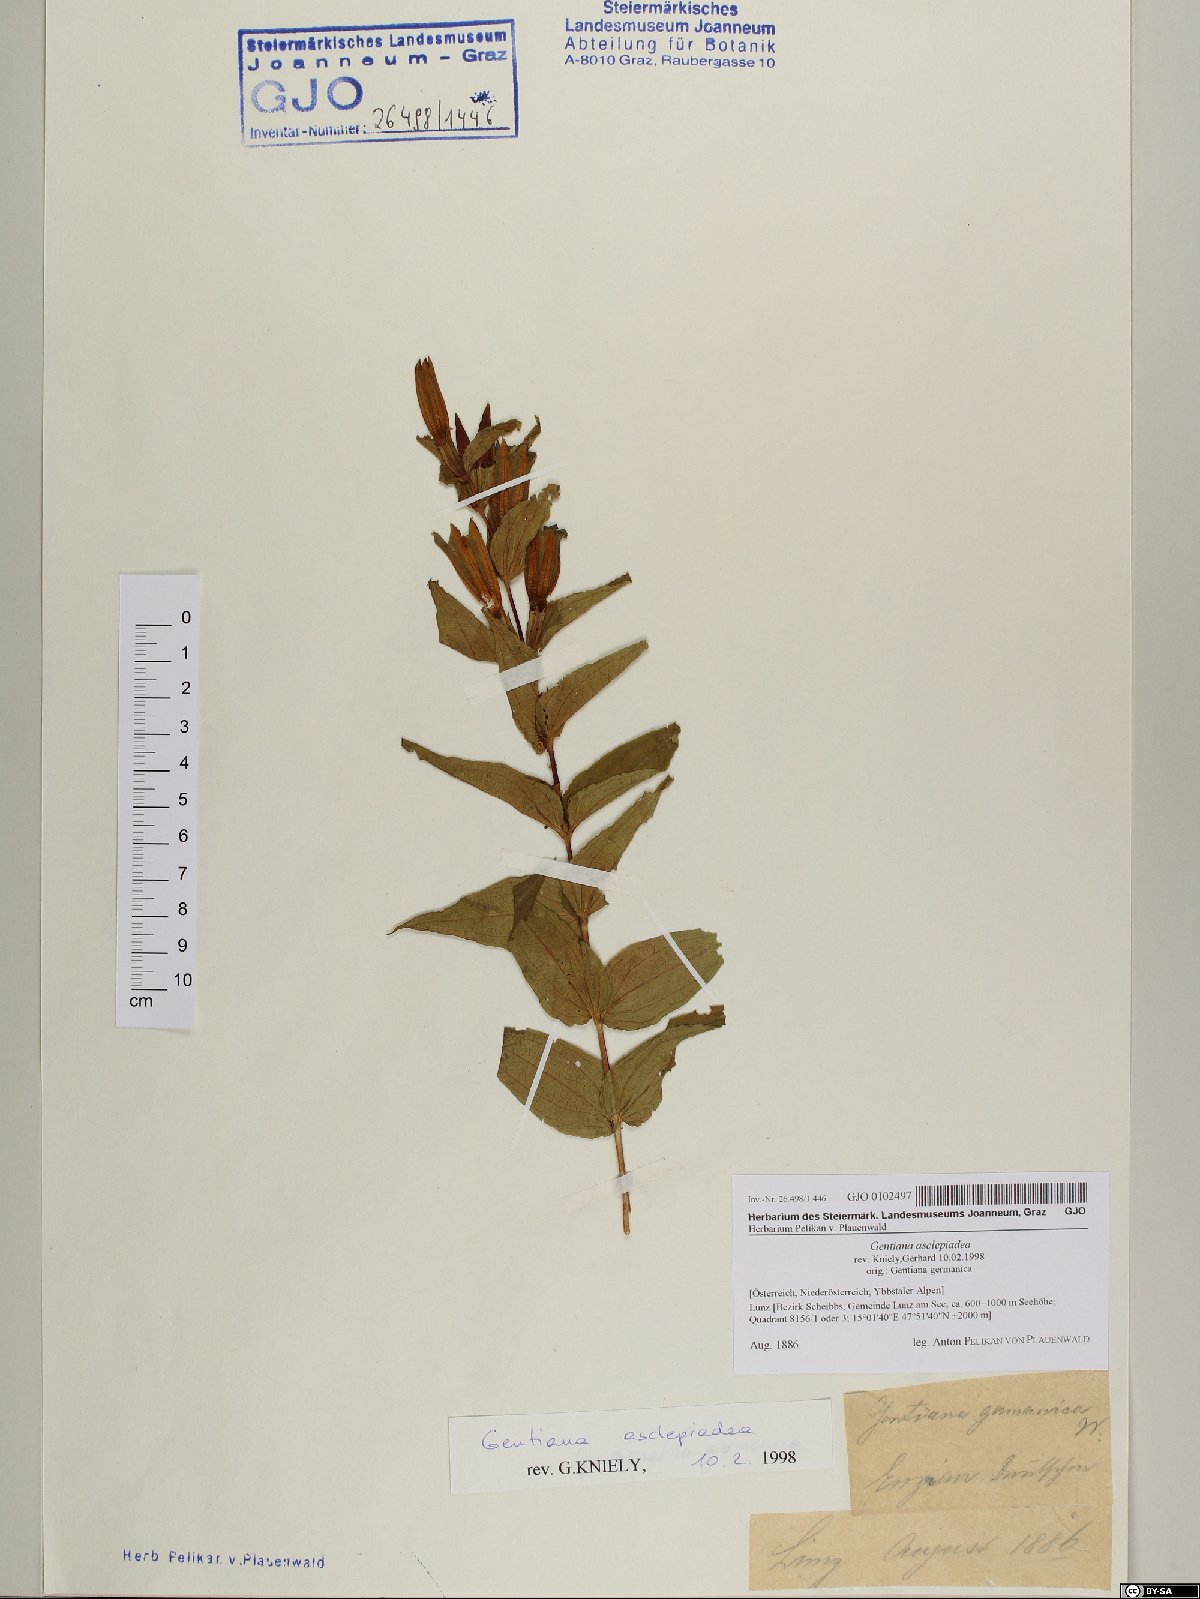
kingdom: Plantae
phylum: Tracheophyta
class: Magnoliopsida
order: Gentianales
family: Gentianaceae
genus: Gentiana
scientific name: Gentiana asclepiadea
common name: Willow gentian
